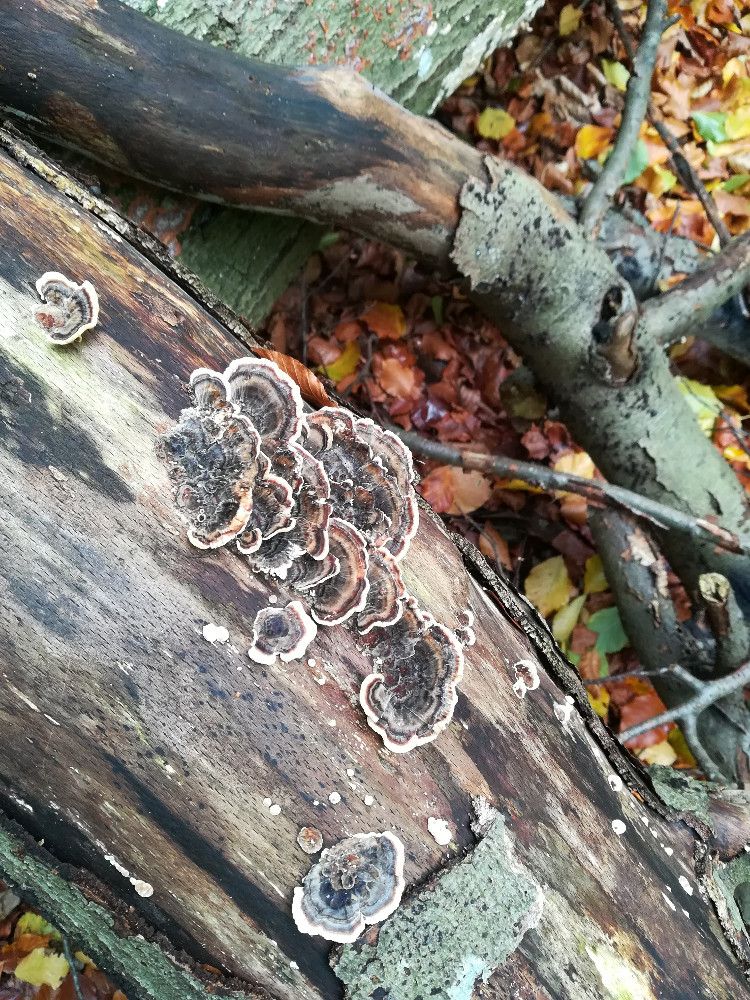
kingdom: Fungi
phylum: Basidiomycota
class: Agaricomycetes
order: Polyporales
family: Polyporaceae
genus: Trametes
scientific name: Trametes versicolor
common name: broget læderporesvamp
